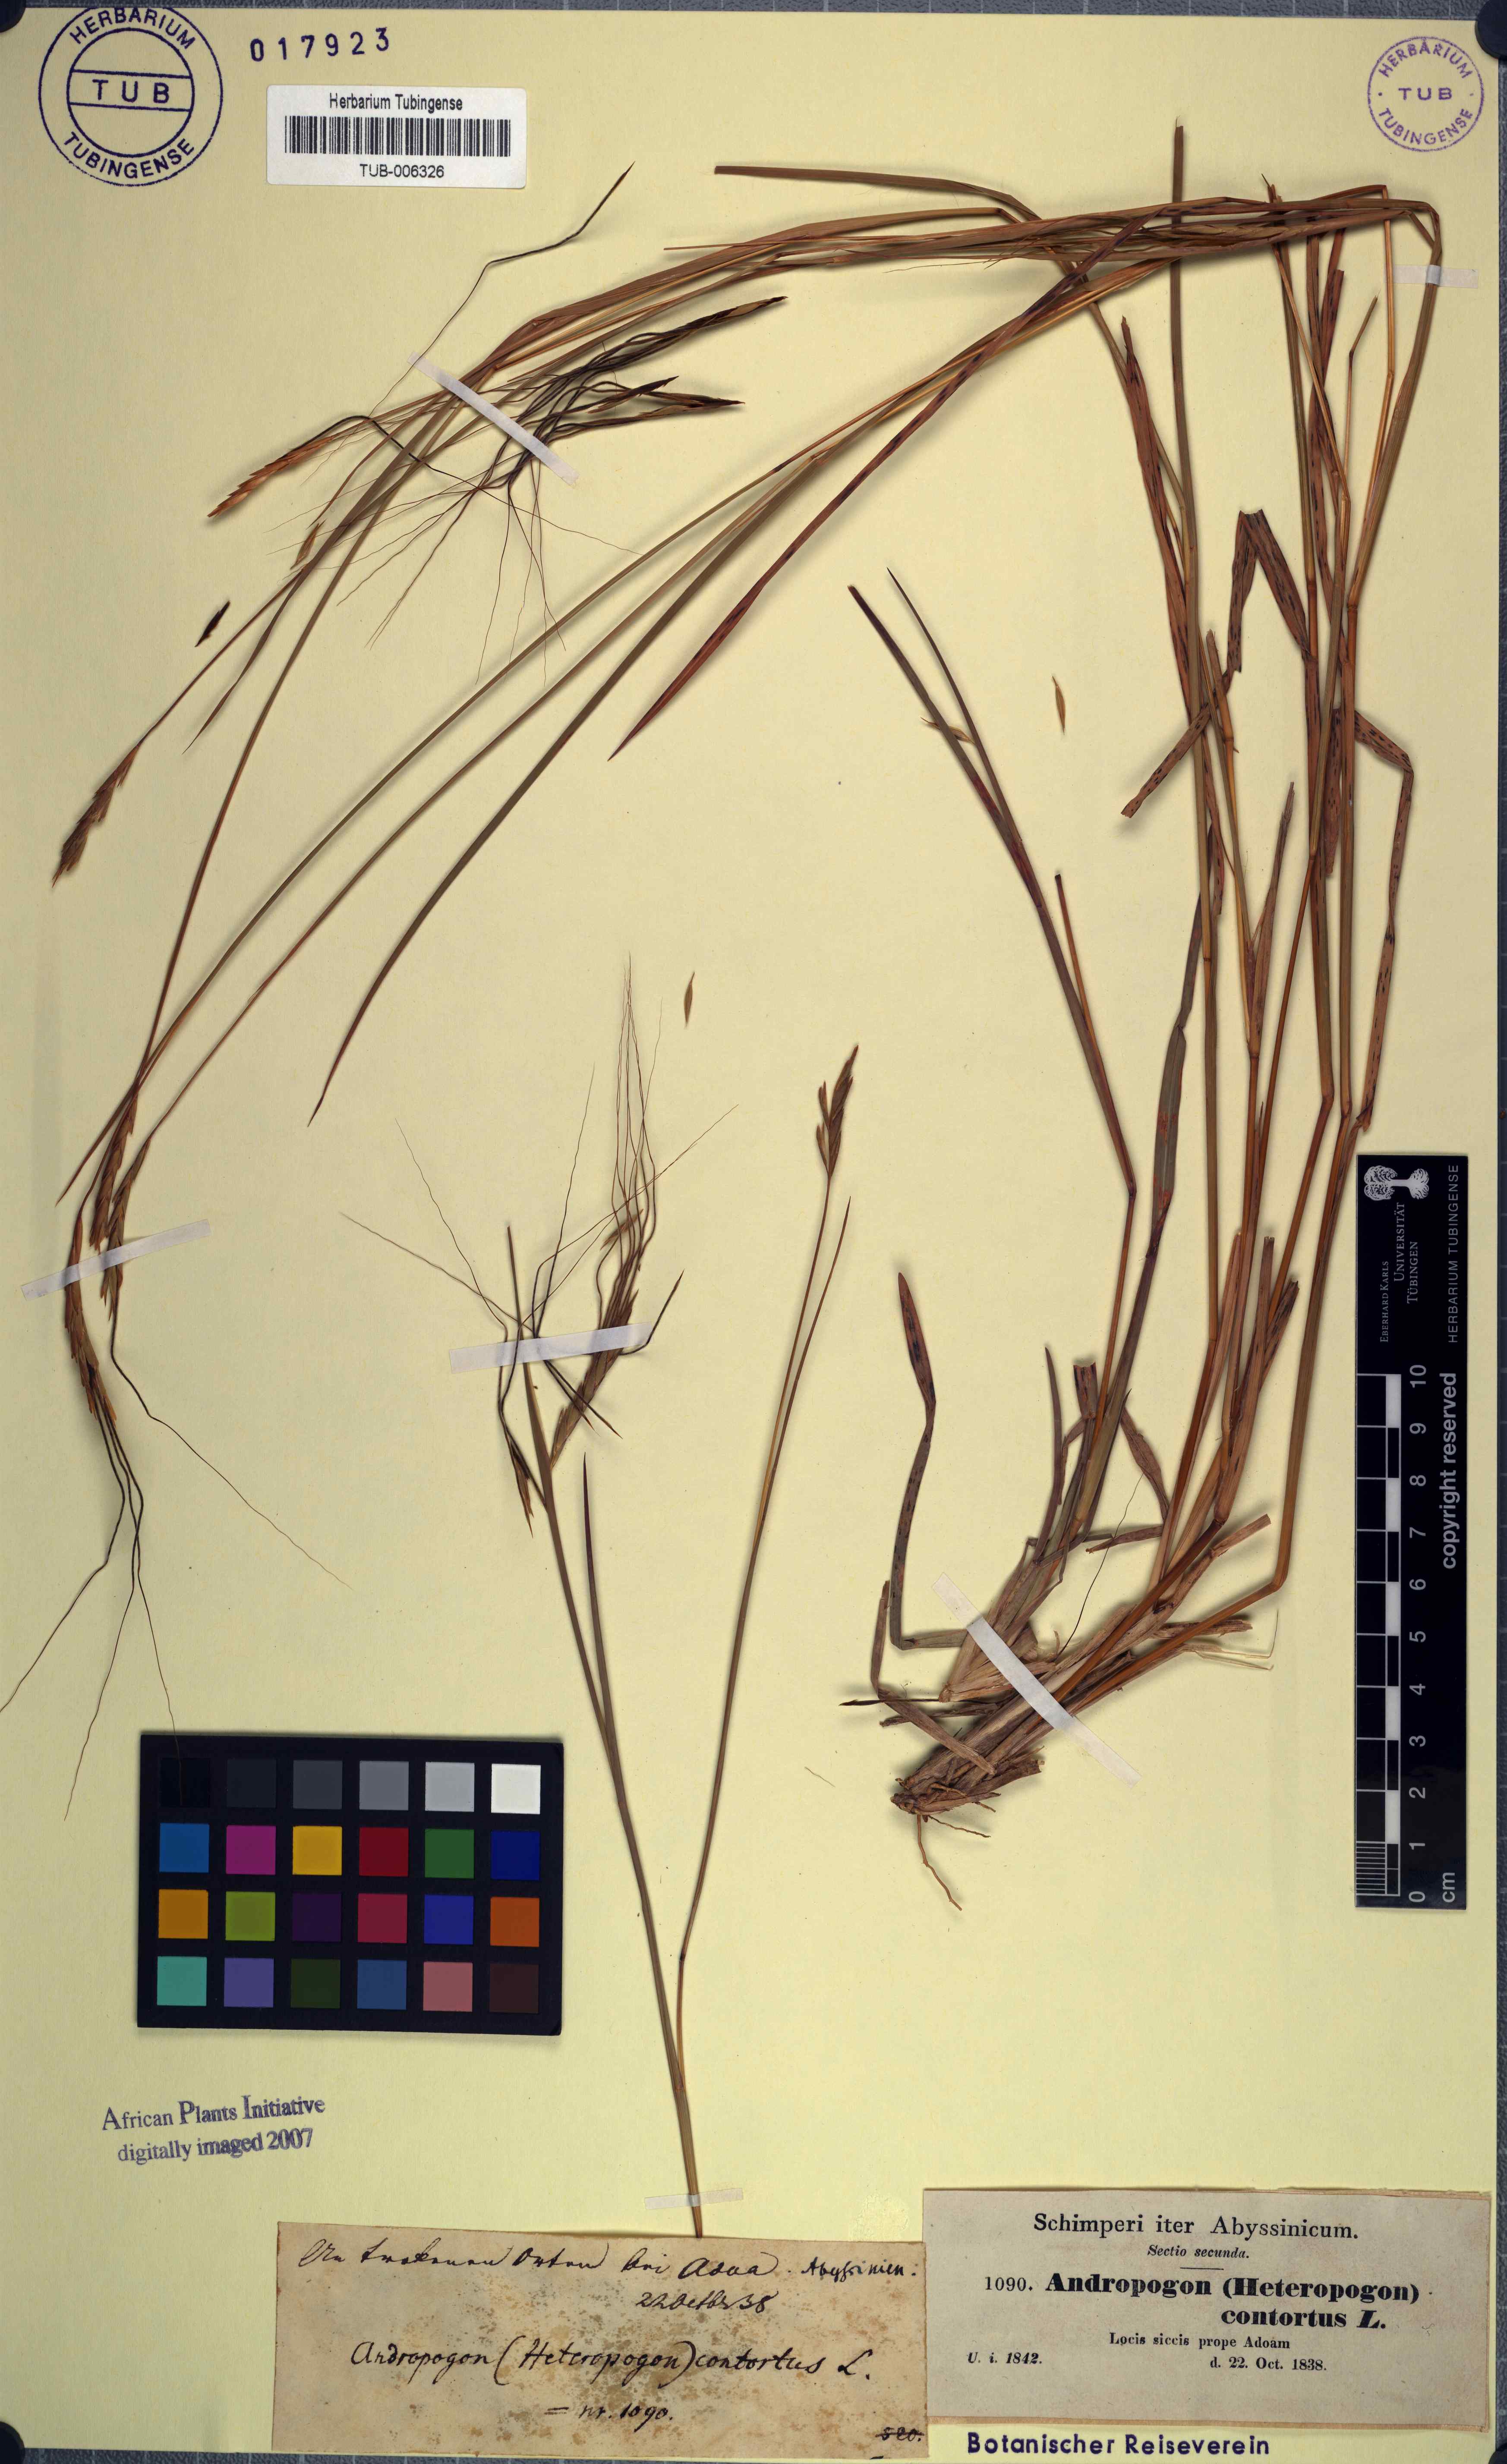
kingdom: Plantae
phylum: Tracheophyta
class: Liliopsida
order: Poales
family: Poaceae
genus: Heteropogon
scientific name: Heteropogon contortus
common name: Tanglehead
